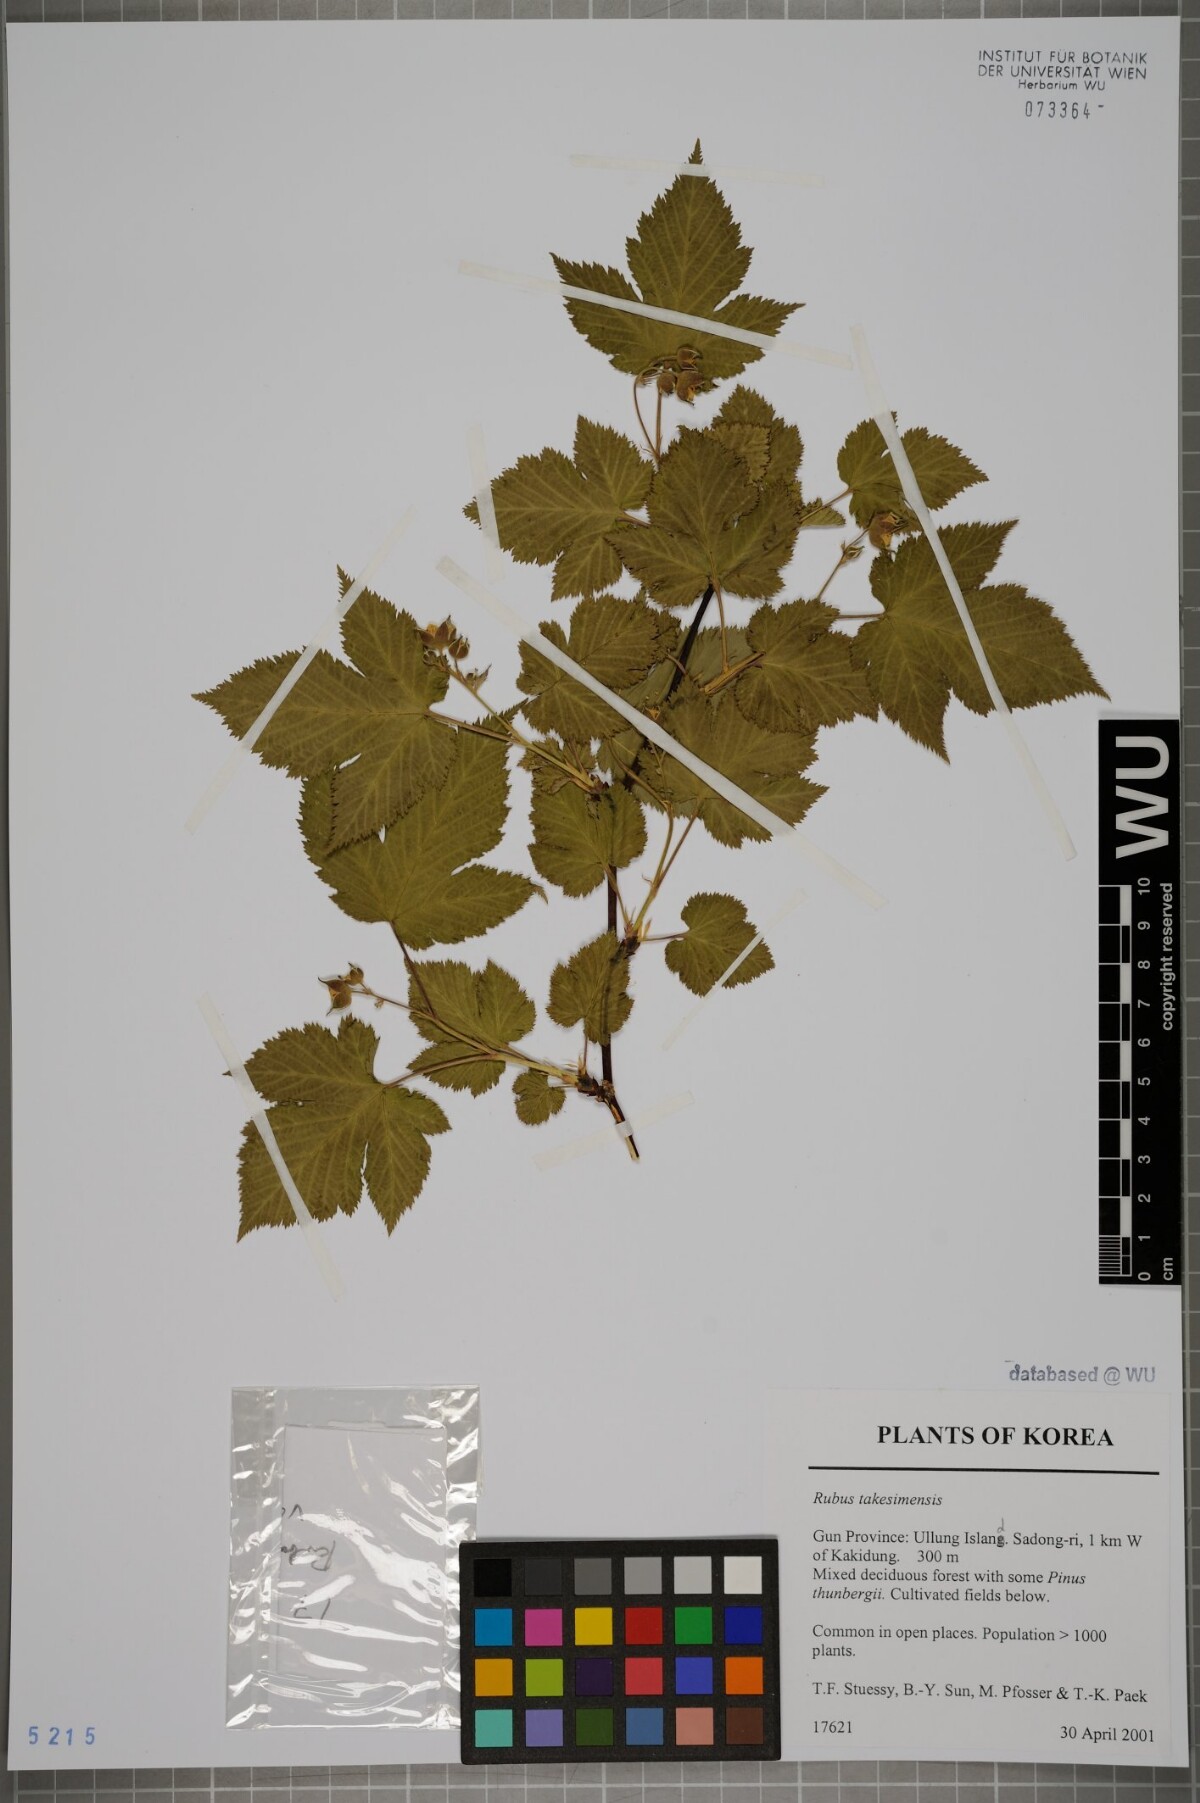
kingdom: Plantae
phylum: Tracheophyta
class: Magnoliopsida
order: Rosales
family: Rosaceae
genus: Rubus
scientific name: Rubus crataegifolius
